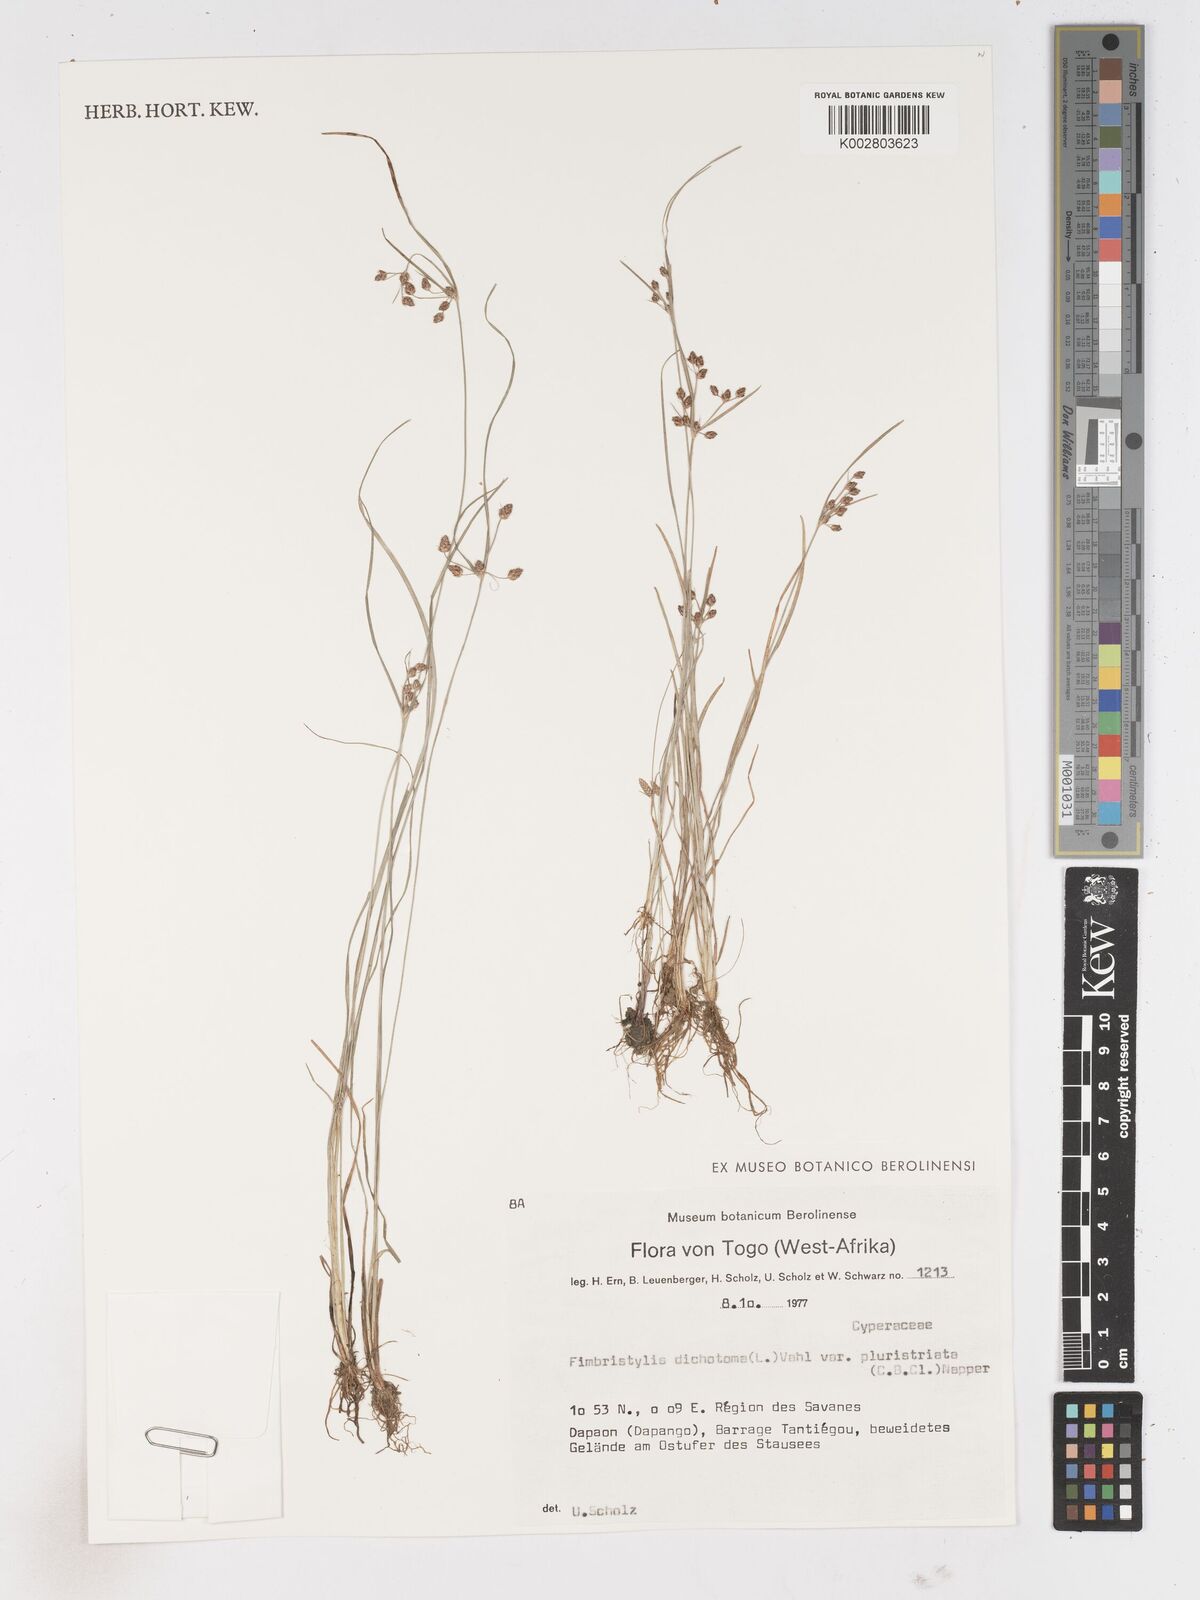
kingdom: Plantae
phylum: Tracheophyta
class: Liliopsida
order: Poales
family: Cyperaceae
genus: Fimbristylis
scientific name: Fimbristylis dichotoma
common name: Forked fimbry
